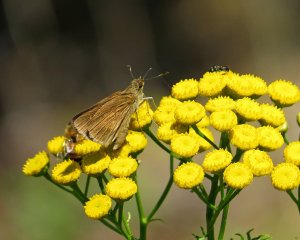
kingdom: Animalia
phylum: Arthropoda
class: Insecta
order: Lepidoptera
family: Hesperiidae
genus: Poanes
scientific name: Poanes viator
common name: Broad-winged Skipper
